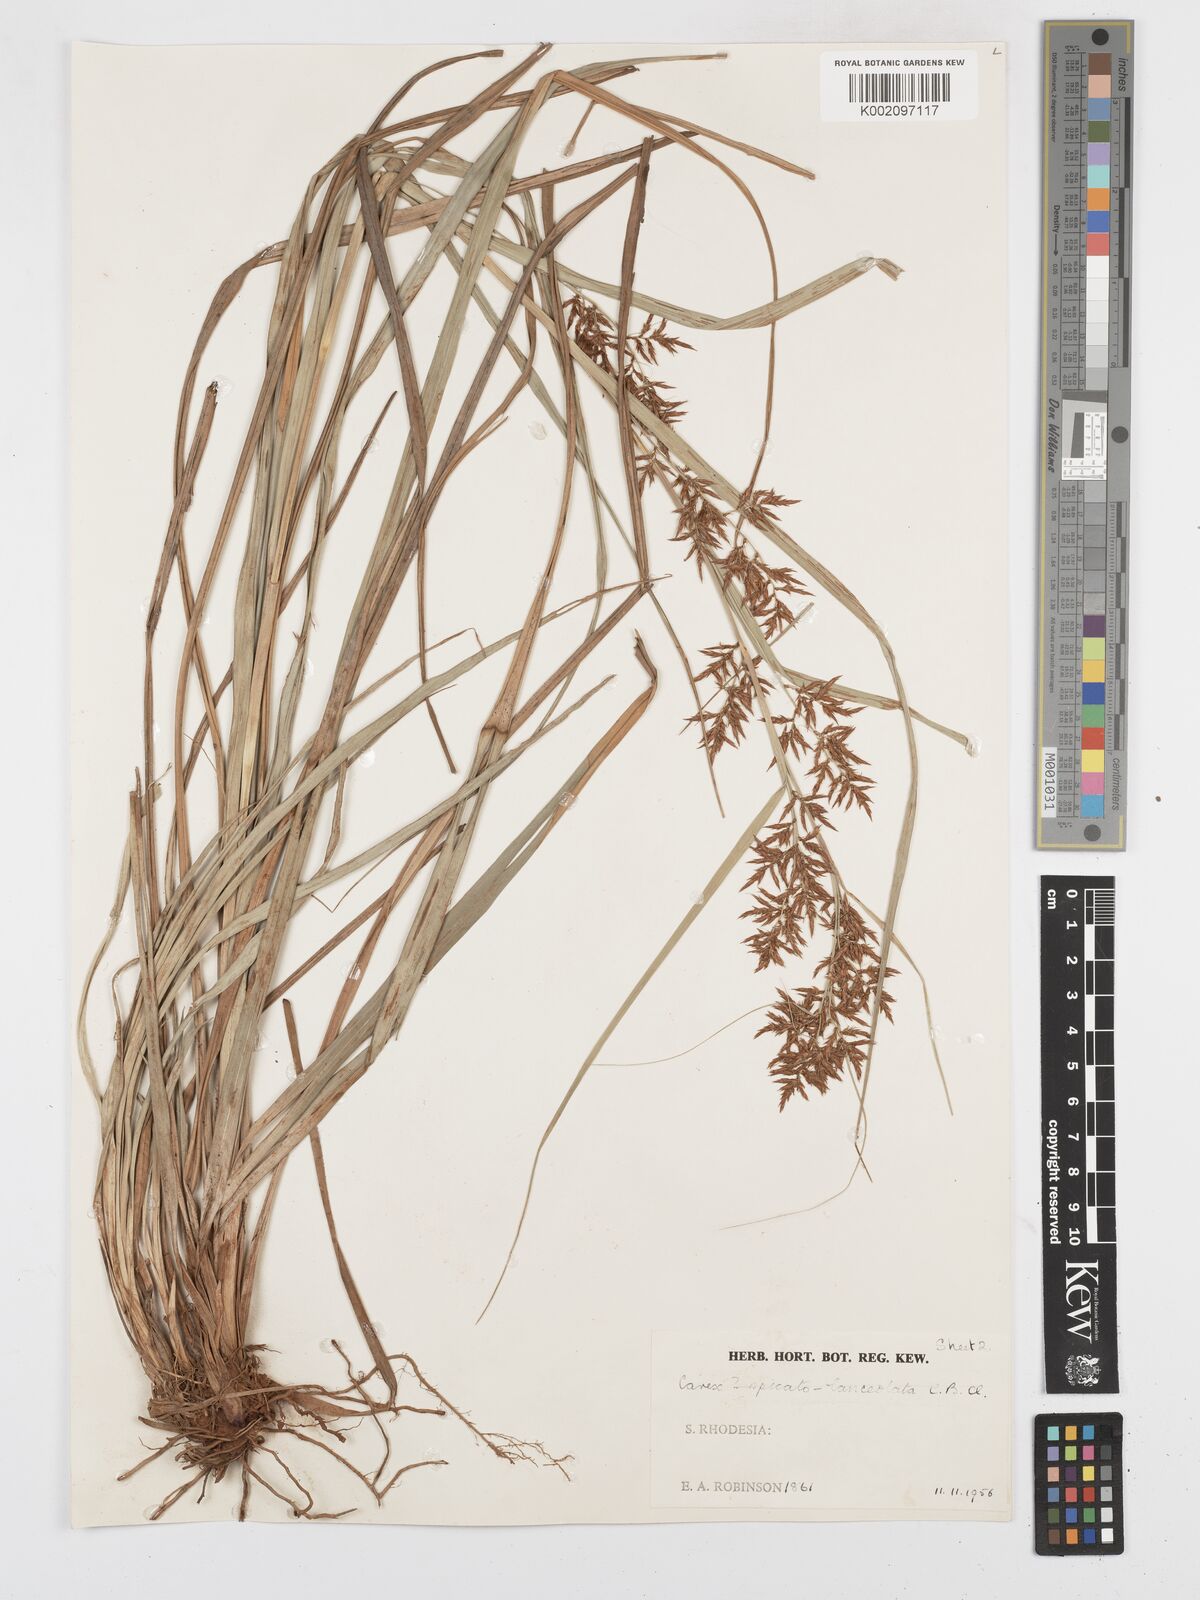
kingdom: Plantae
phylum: Tracheophyta
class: Liliopsida
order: Poales
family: Cyperaceae
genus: Carex
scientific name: Carex steudneri
